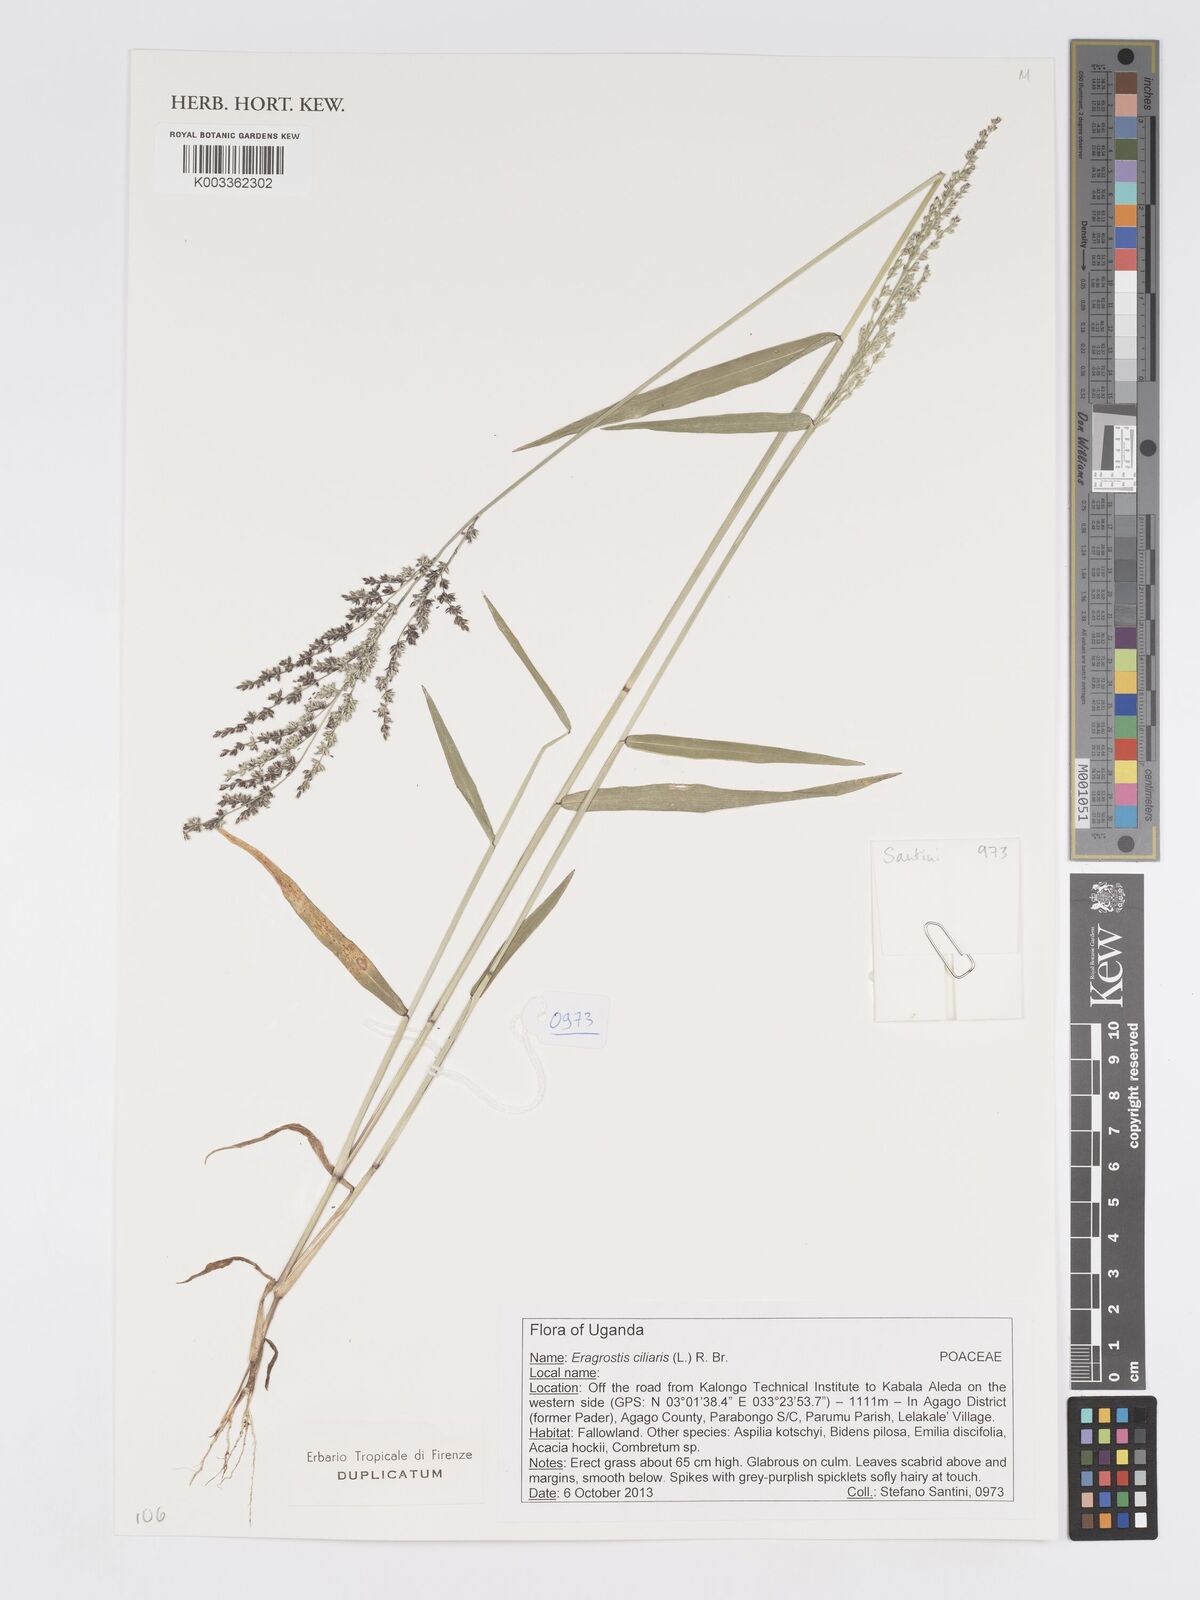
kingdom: Plantae
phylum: Tracheophyta
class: Liliopsida
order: Poales
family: Poaceae
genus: Eragrostis
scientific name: Eragrostis ciliaris
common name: Gophertail lovegrass
